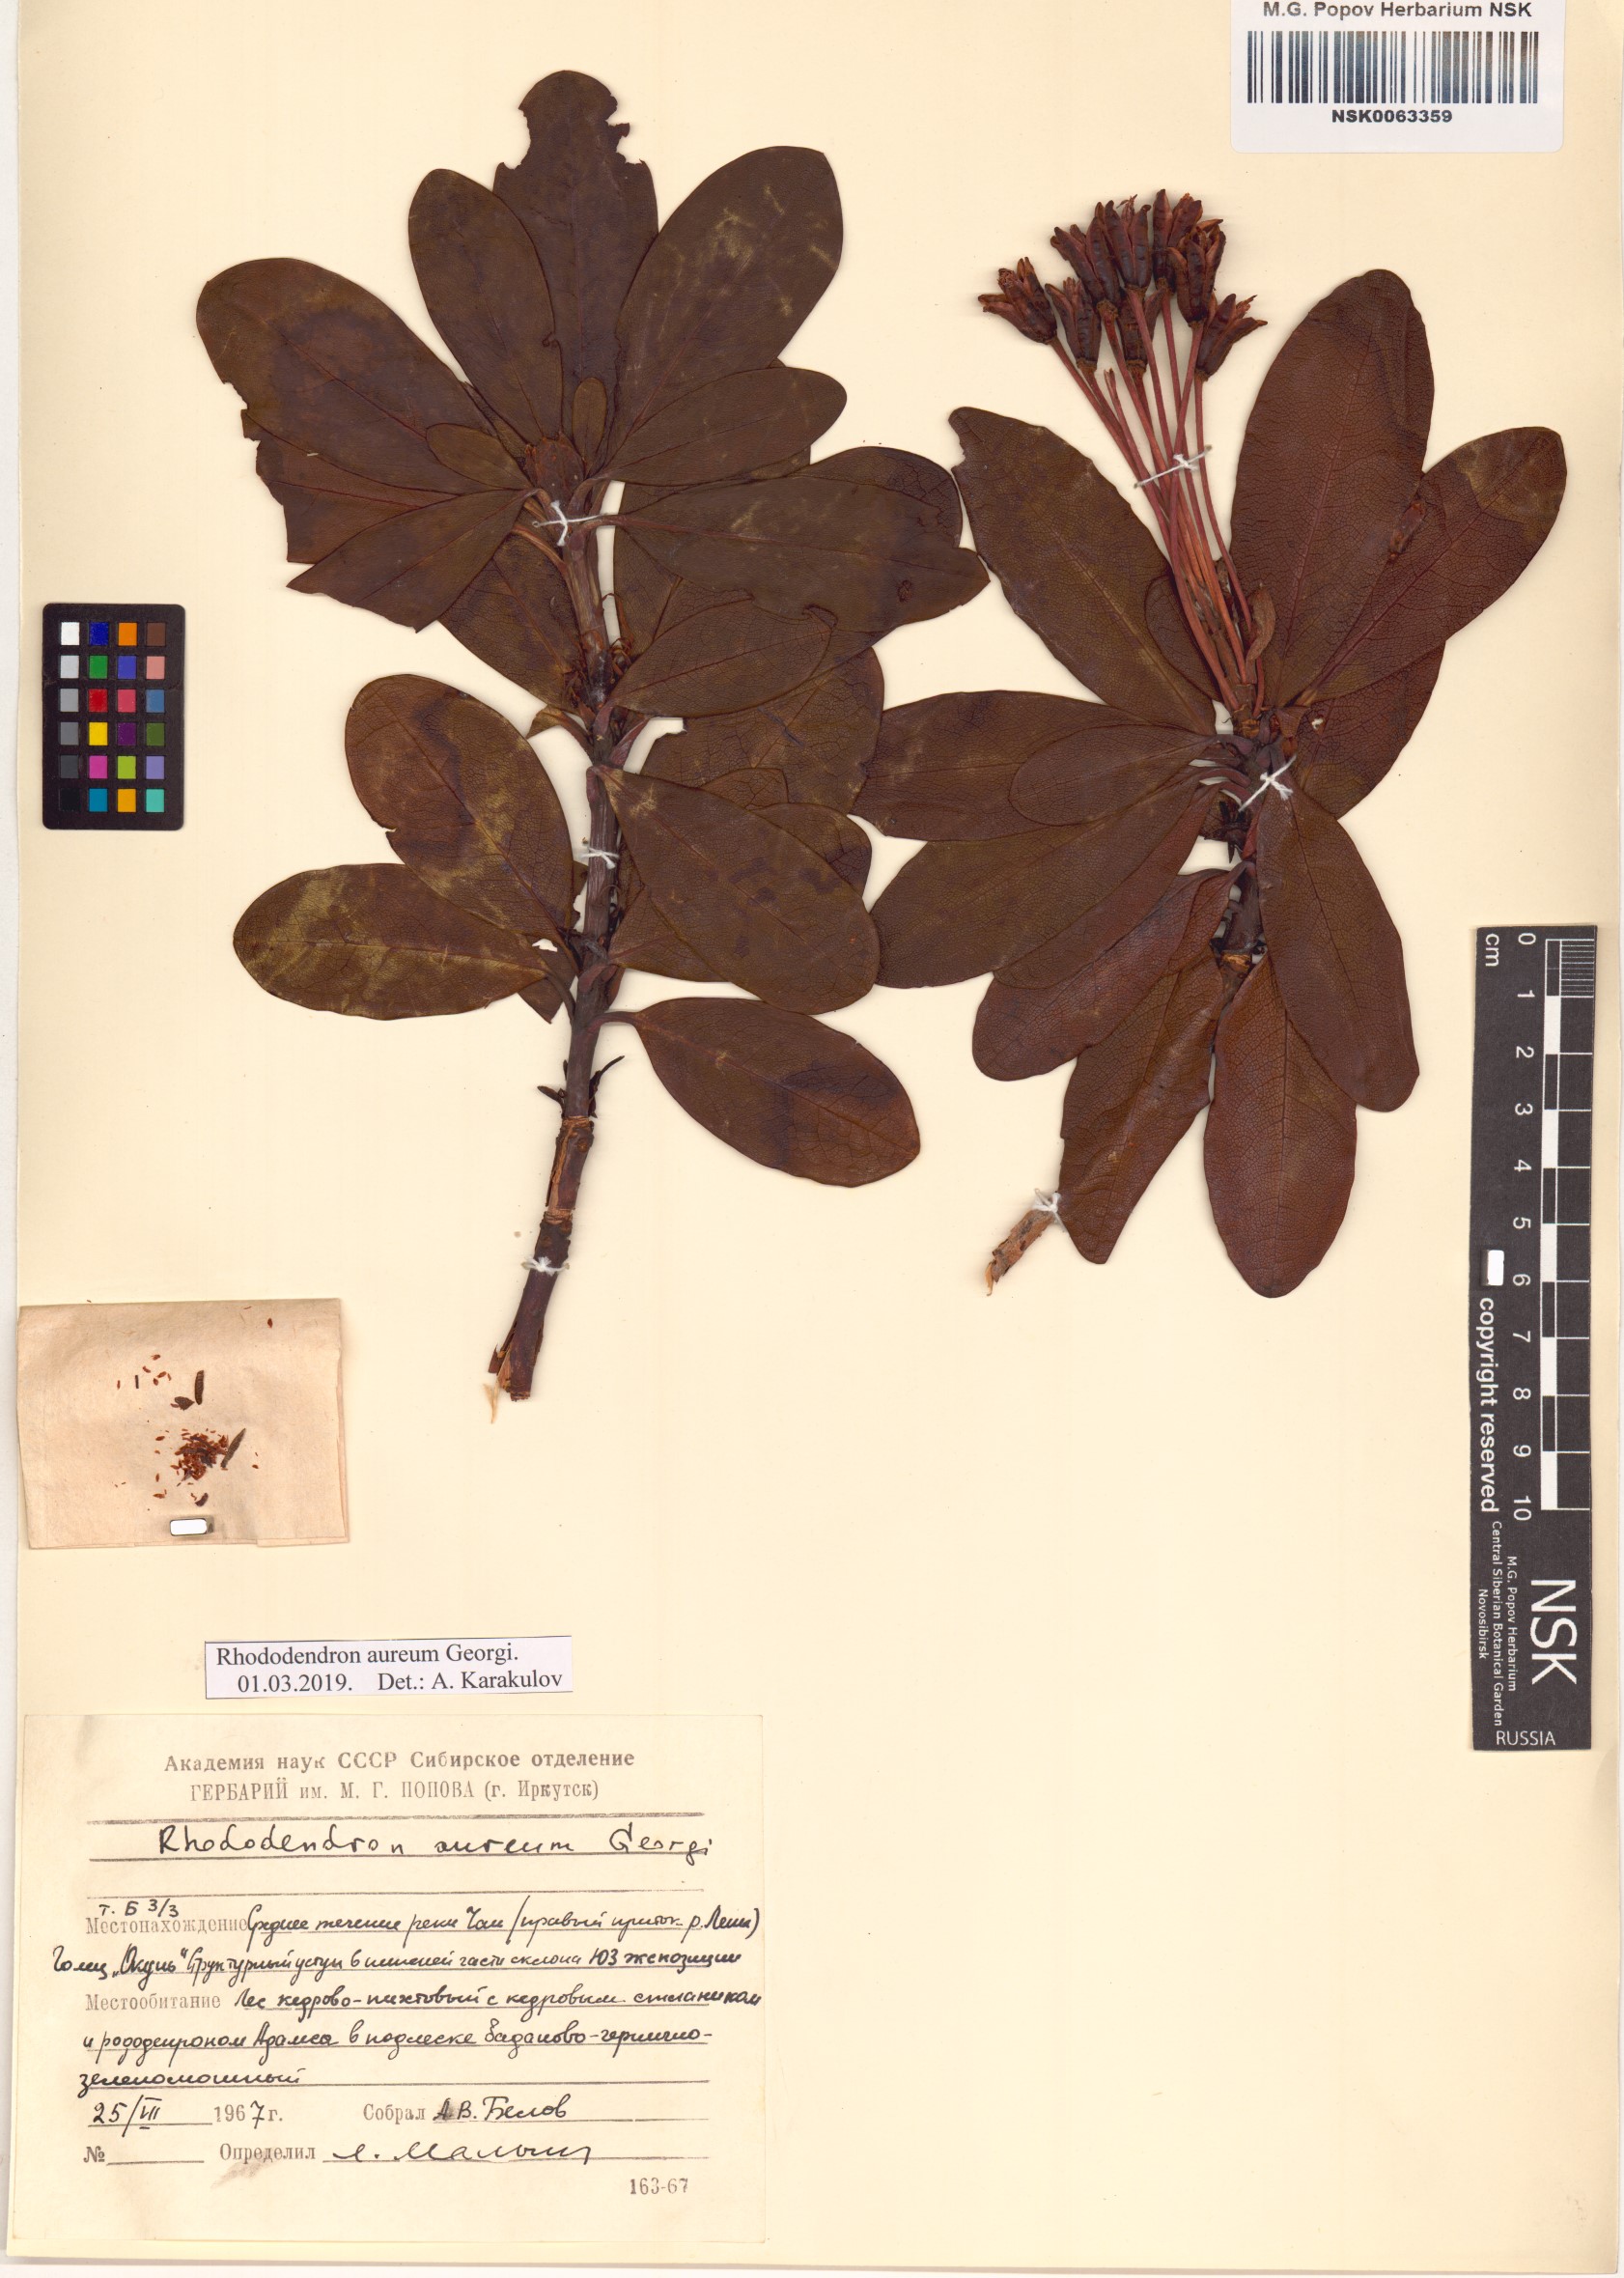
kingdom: Plantae
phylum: Tracheophyta
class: Magnoliopsida
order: Ericales
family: Ericaceae
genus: Rhododendron
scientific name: Rhododendron aureum
